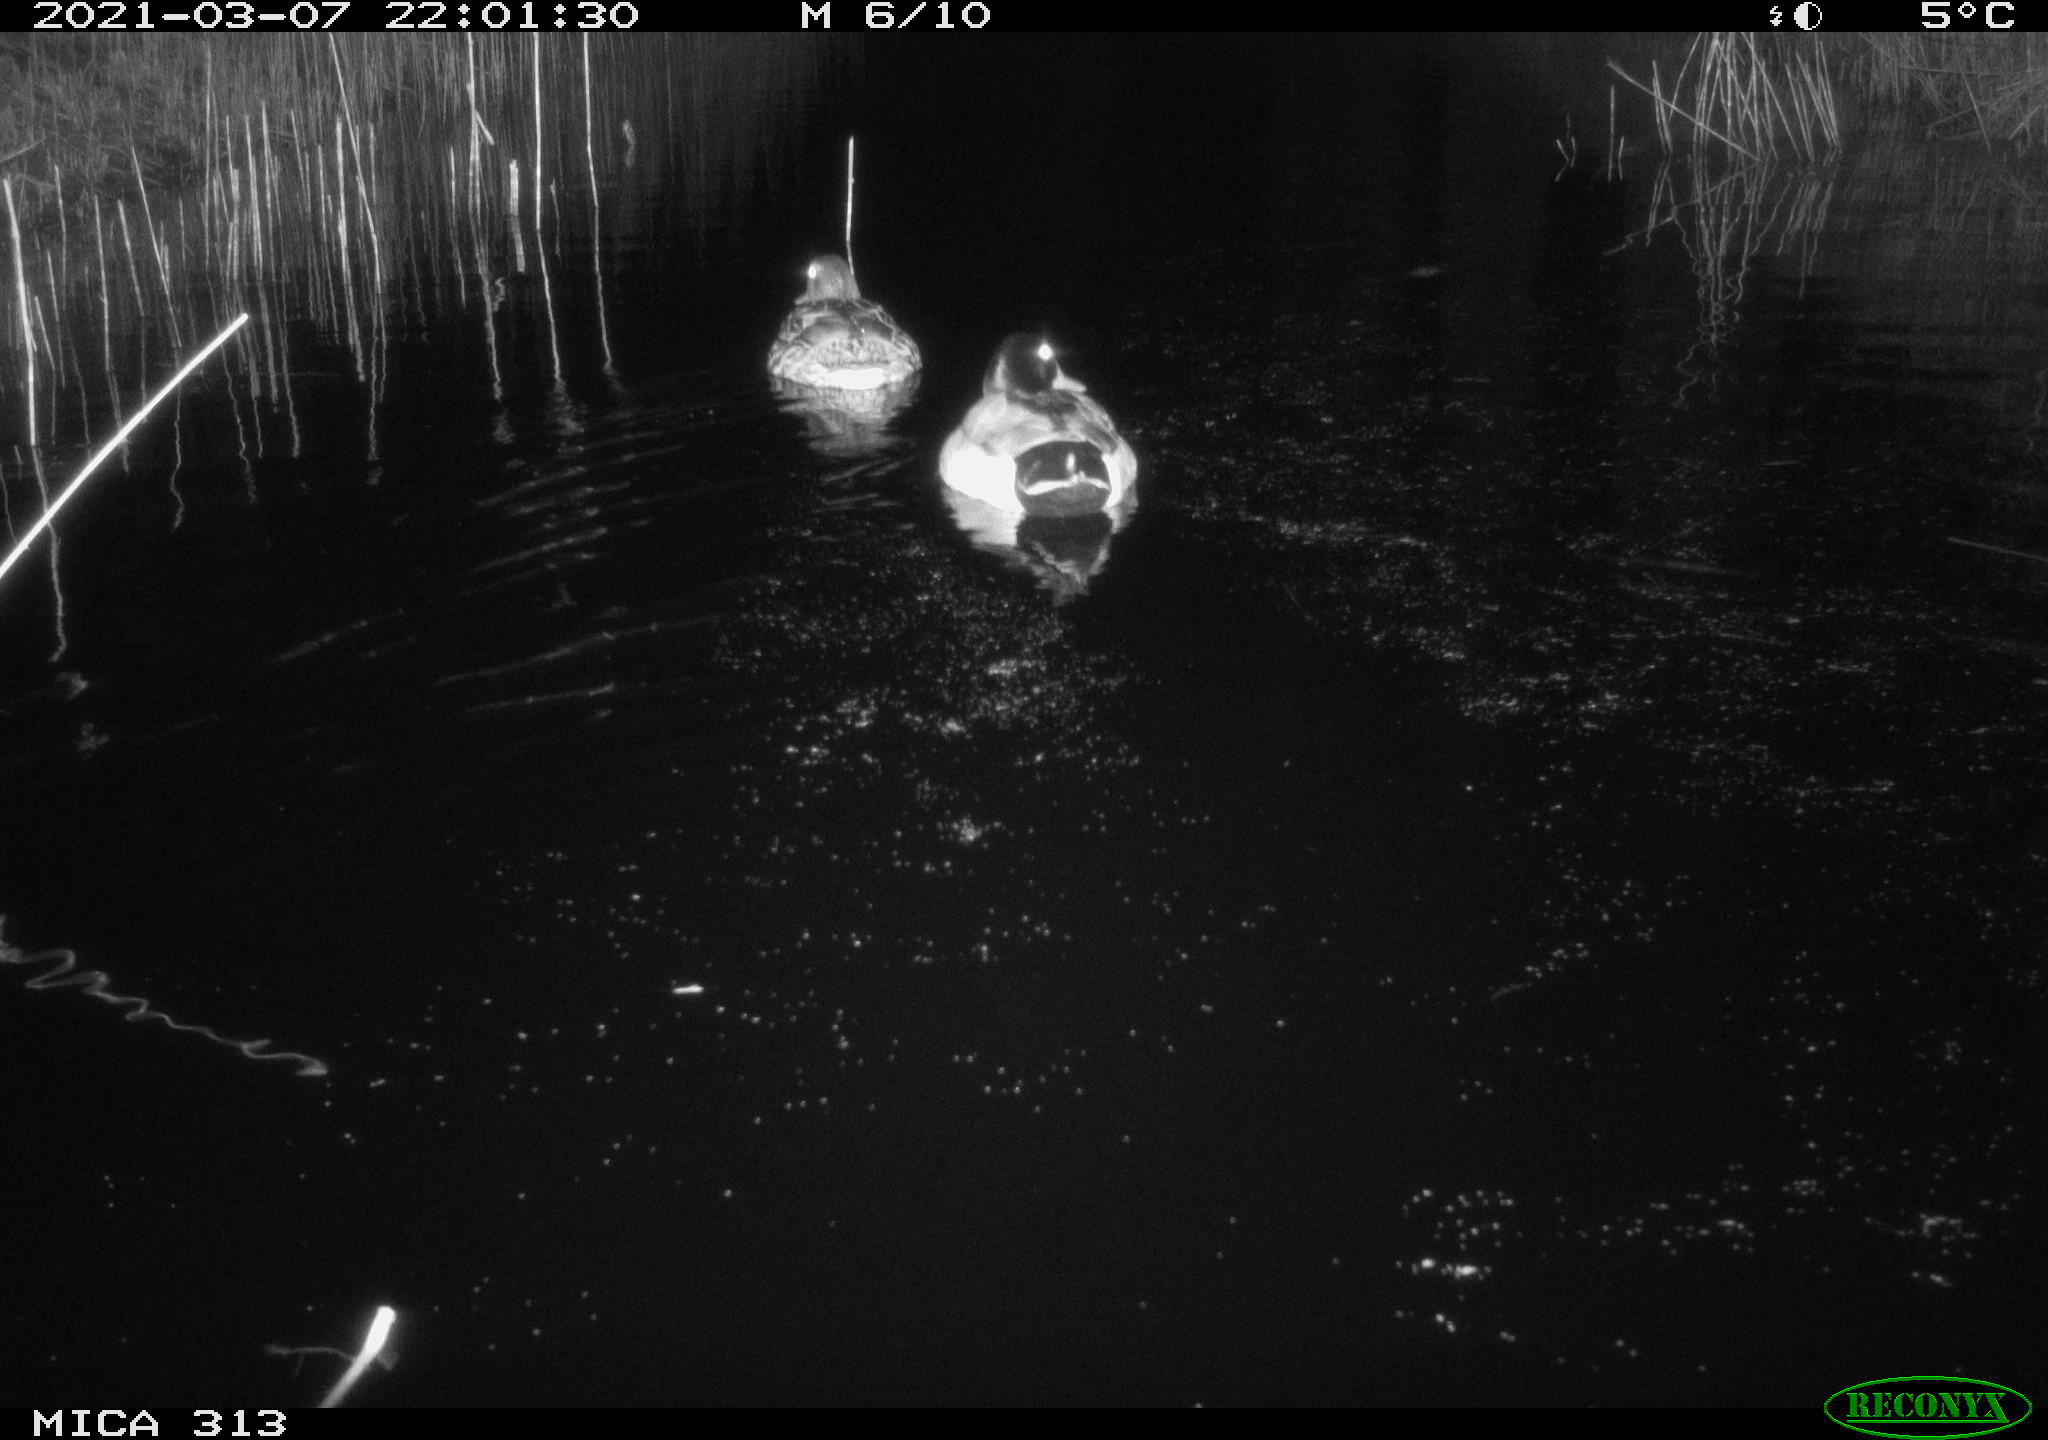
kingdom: Animalia
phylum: Chordata
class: Aves
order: Gruiformes
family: Rallidae
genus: Gallinula
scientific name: Gallinula chloropus
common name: Common moorhen
